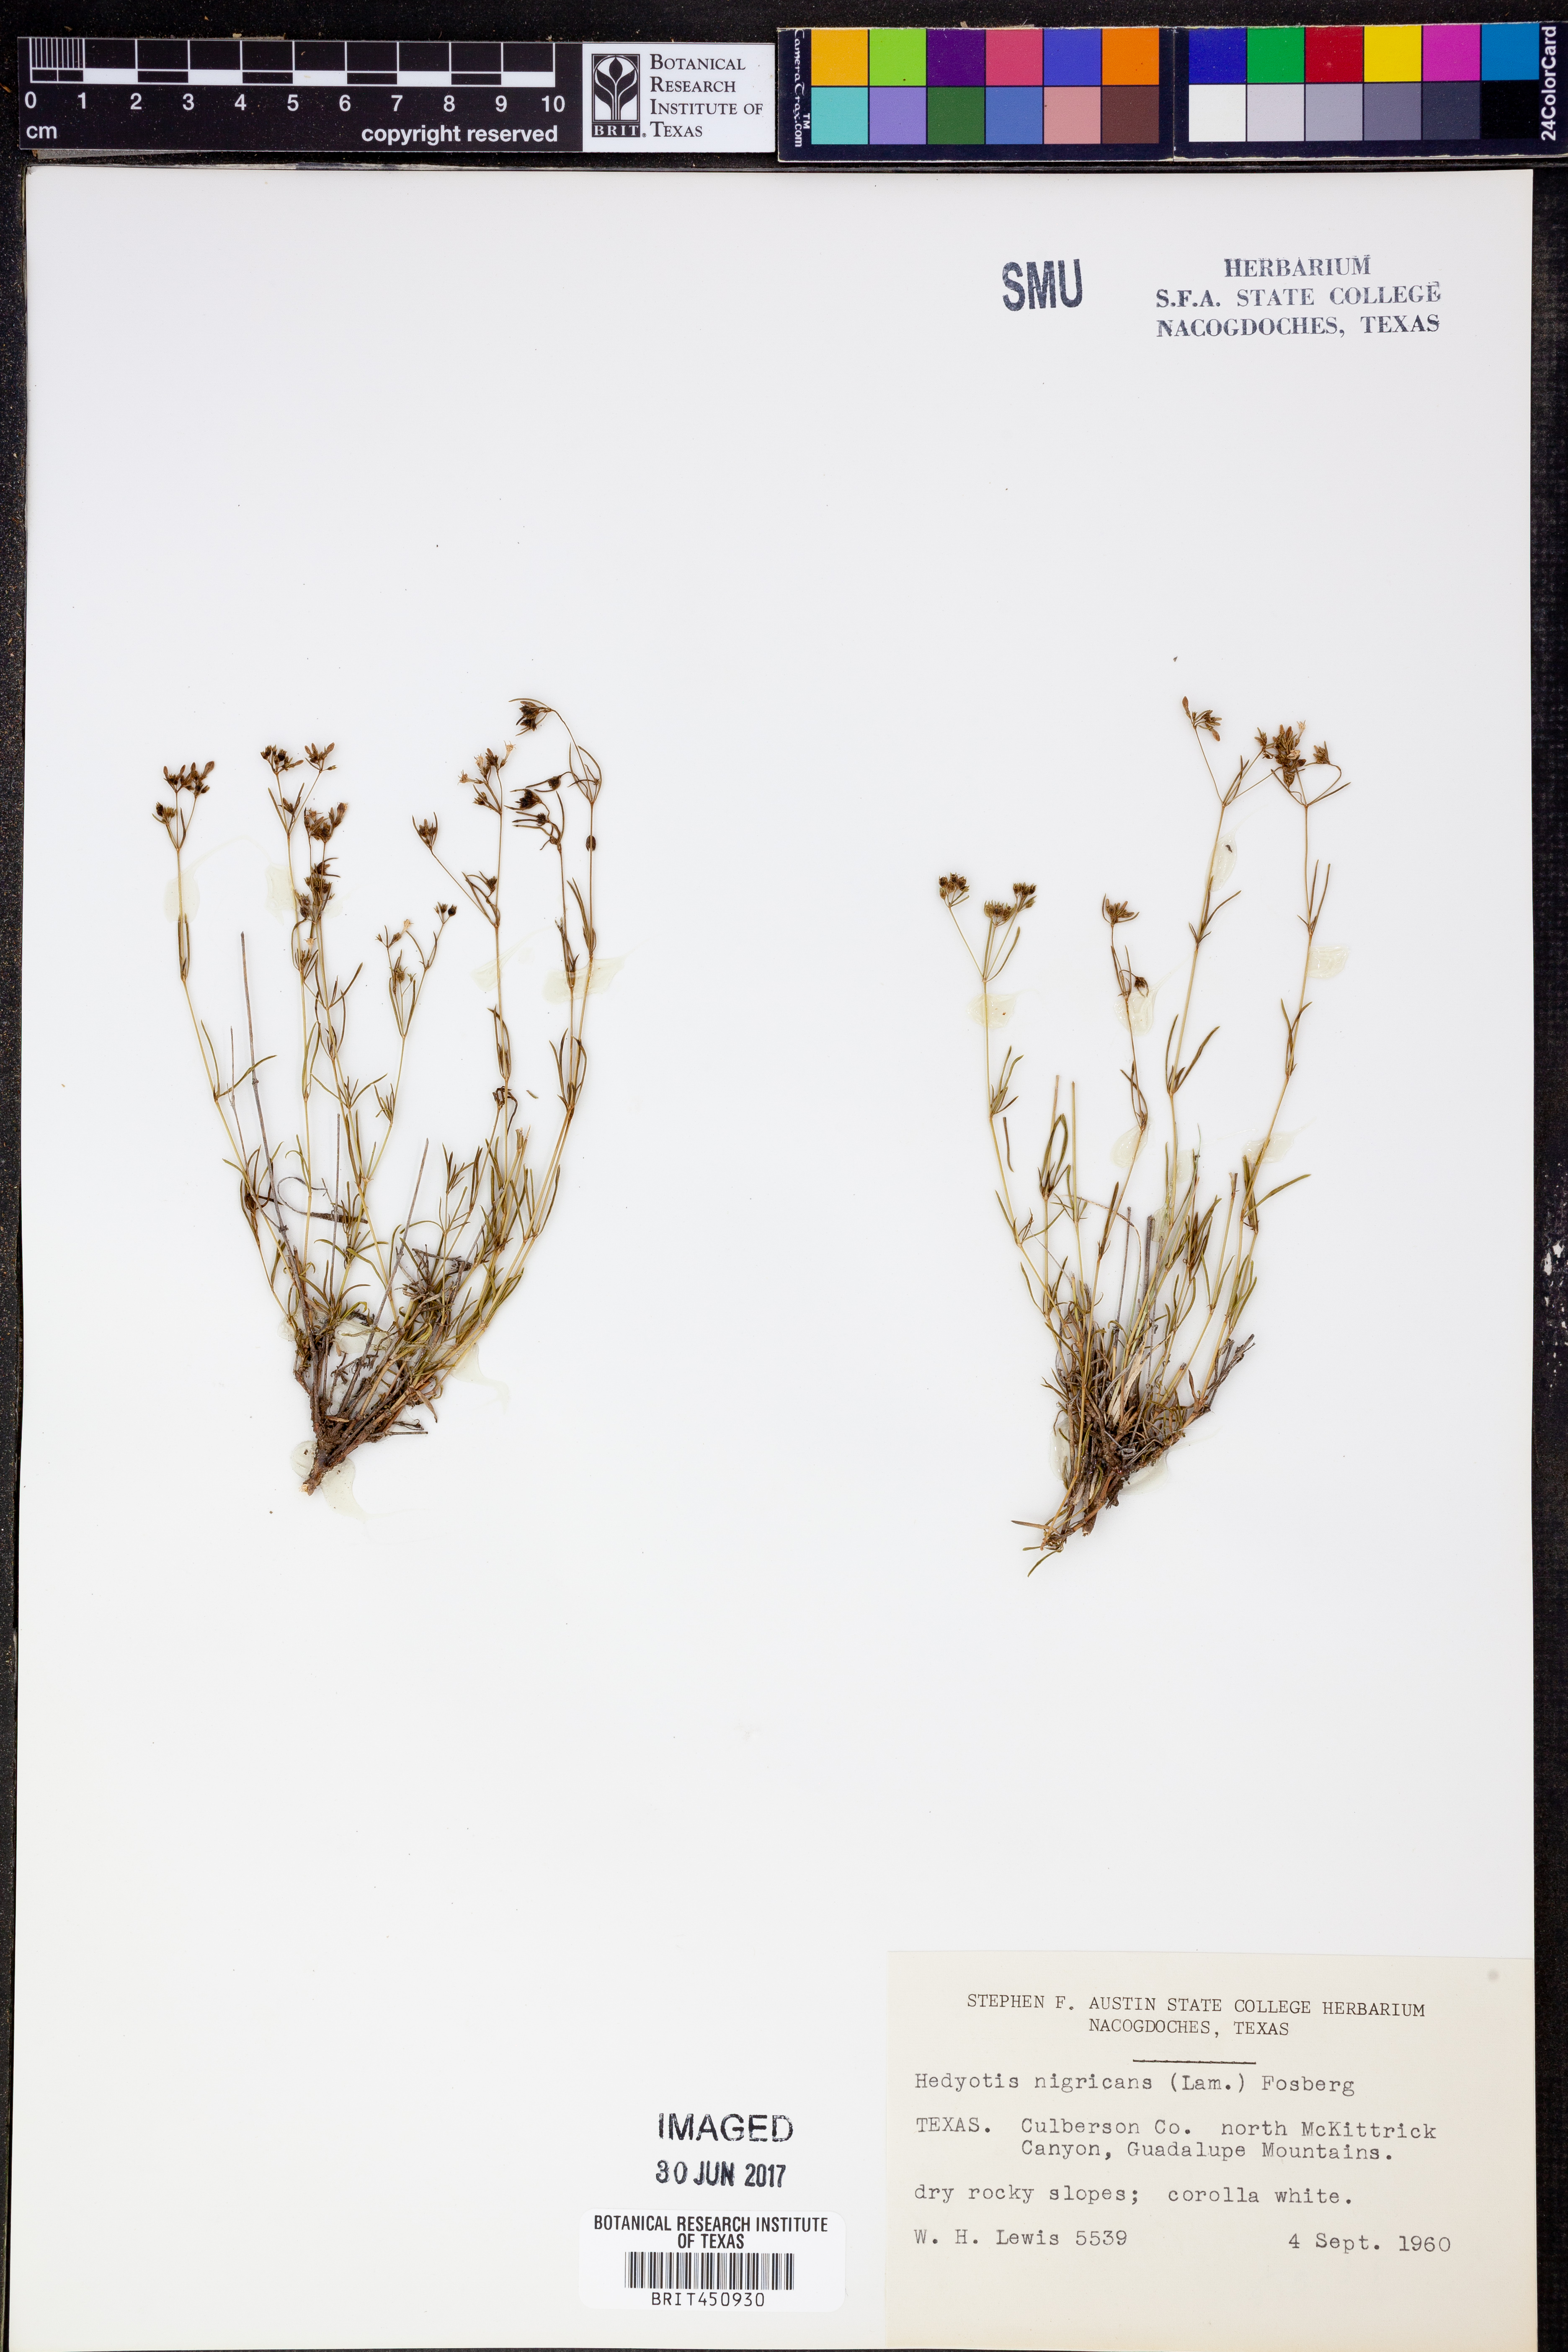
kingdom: Plantae
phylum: Tracheophyta
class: Magnoliopsida
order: Gentianales
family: Rubiaceae
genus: Stenaria
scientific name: Stenaria nigricans
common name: Diamondflowers
